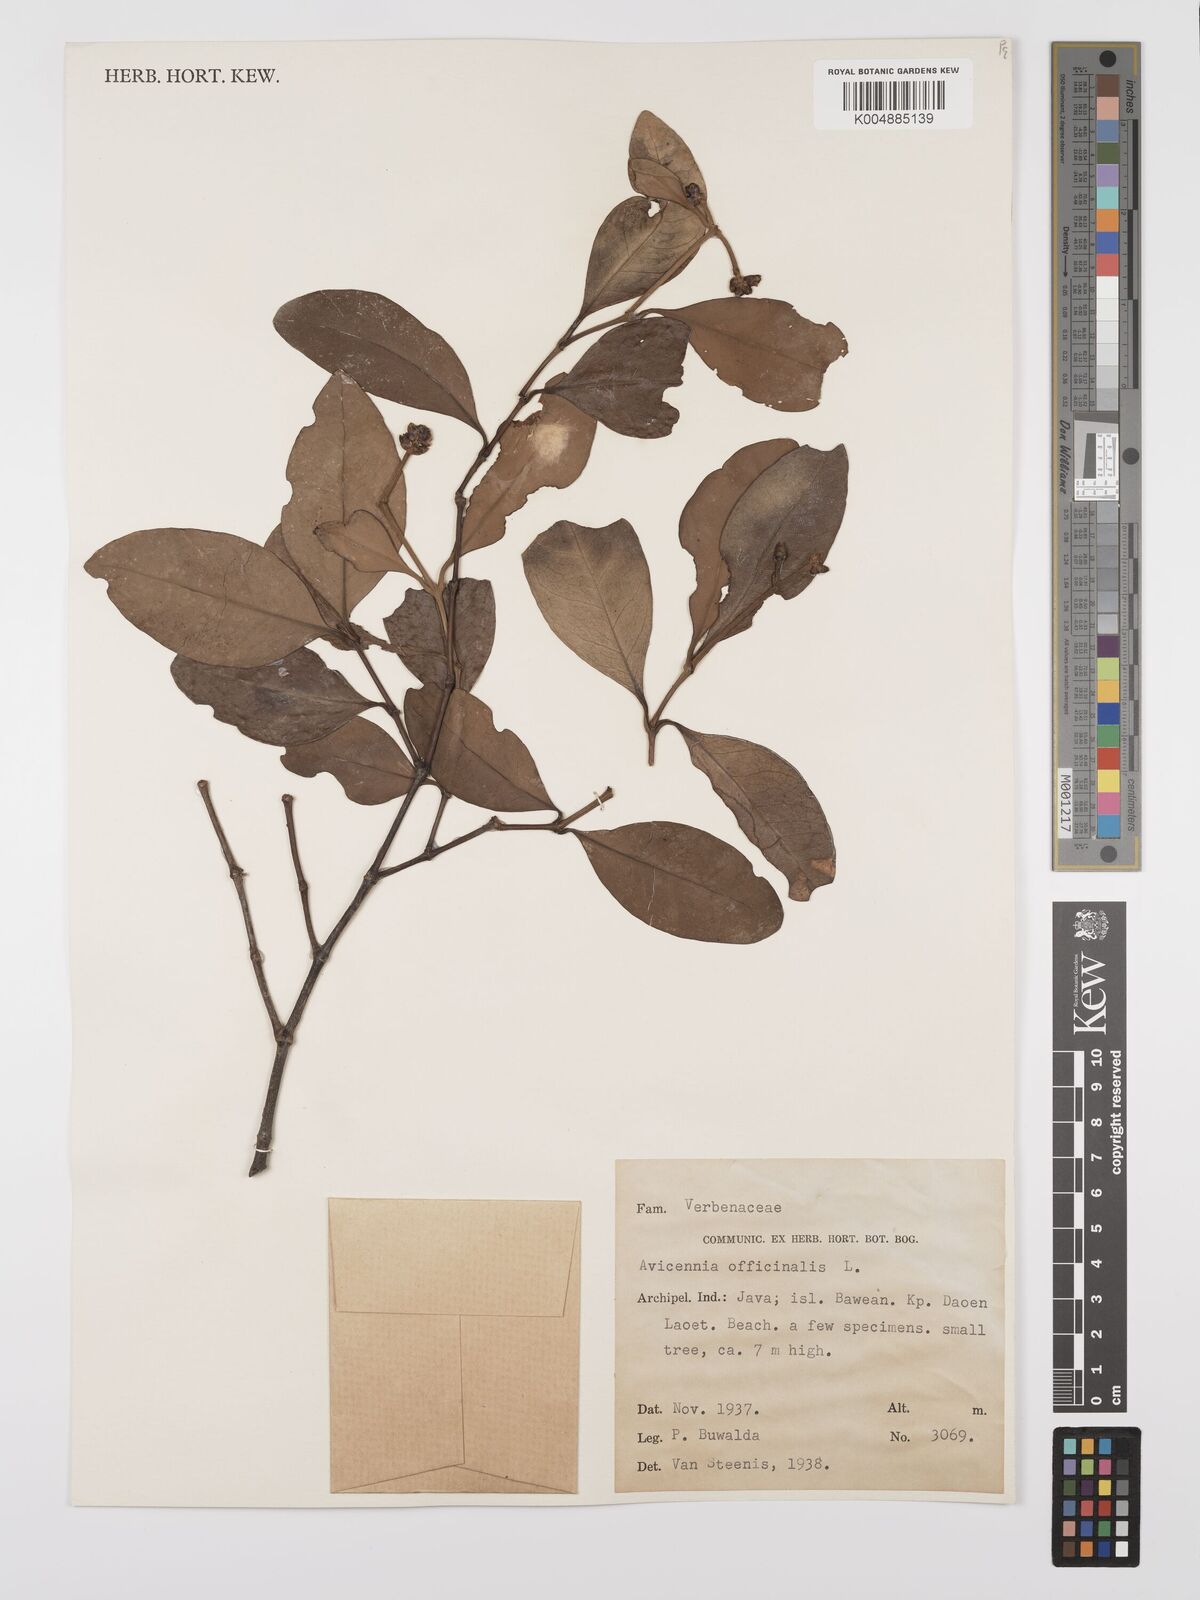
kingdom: Plantae
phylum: Tracheophyta
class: Magnoliopsida
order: Lamiales
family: Acanthaceae
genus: Avicennia
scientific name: Avicennia officinalis
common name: Baen
